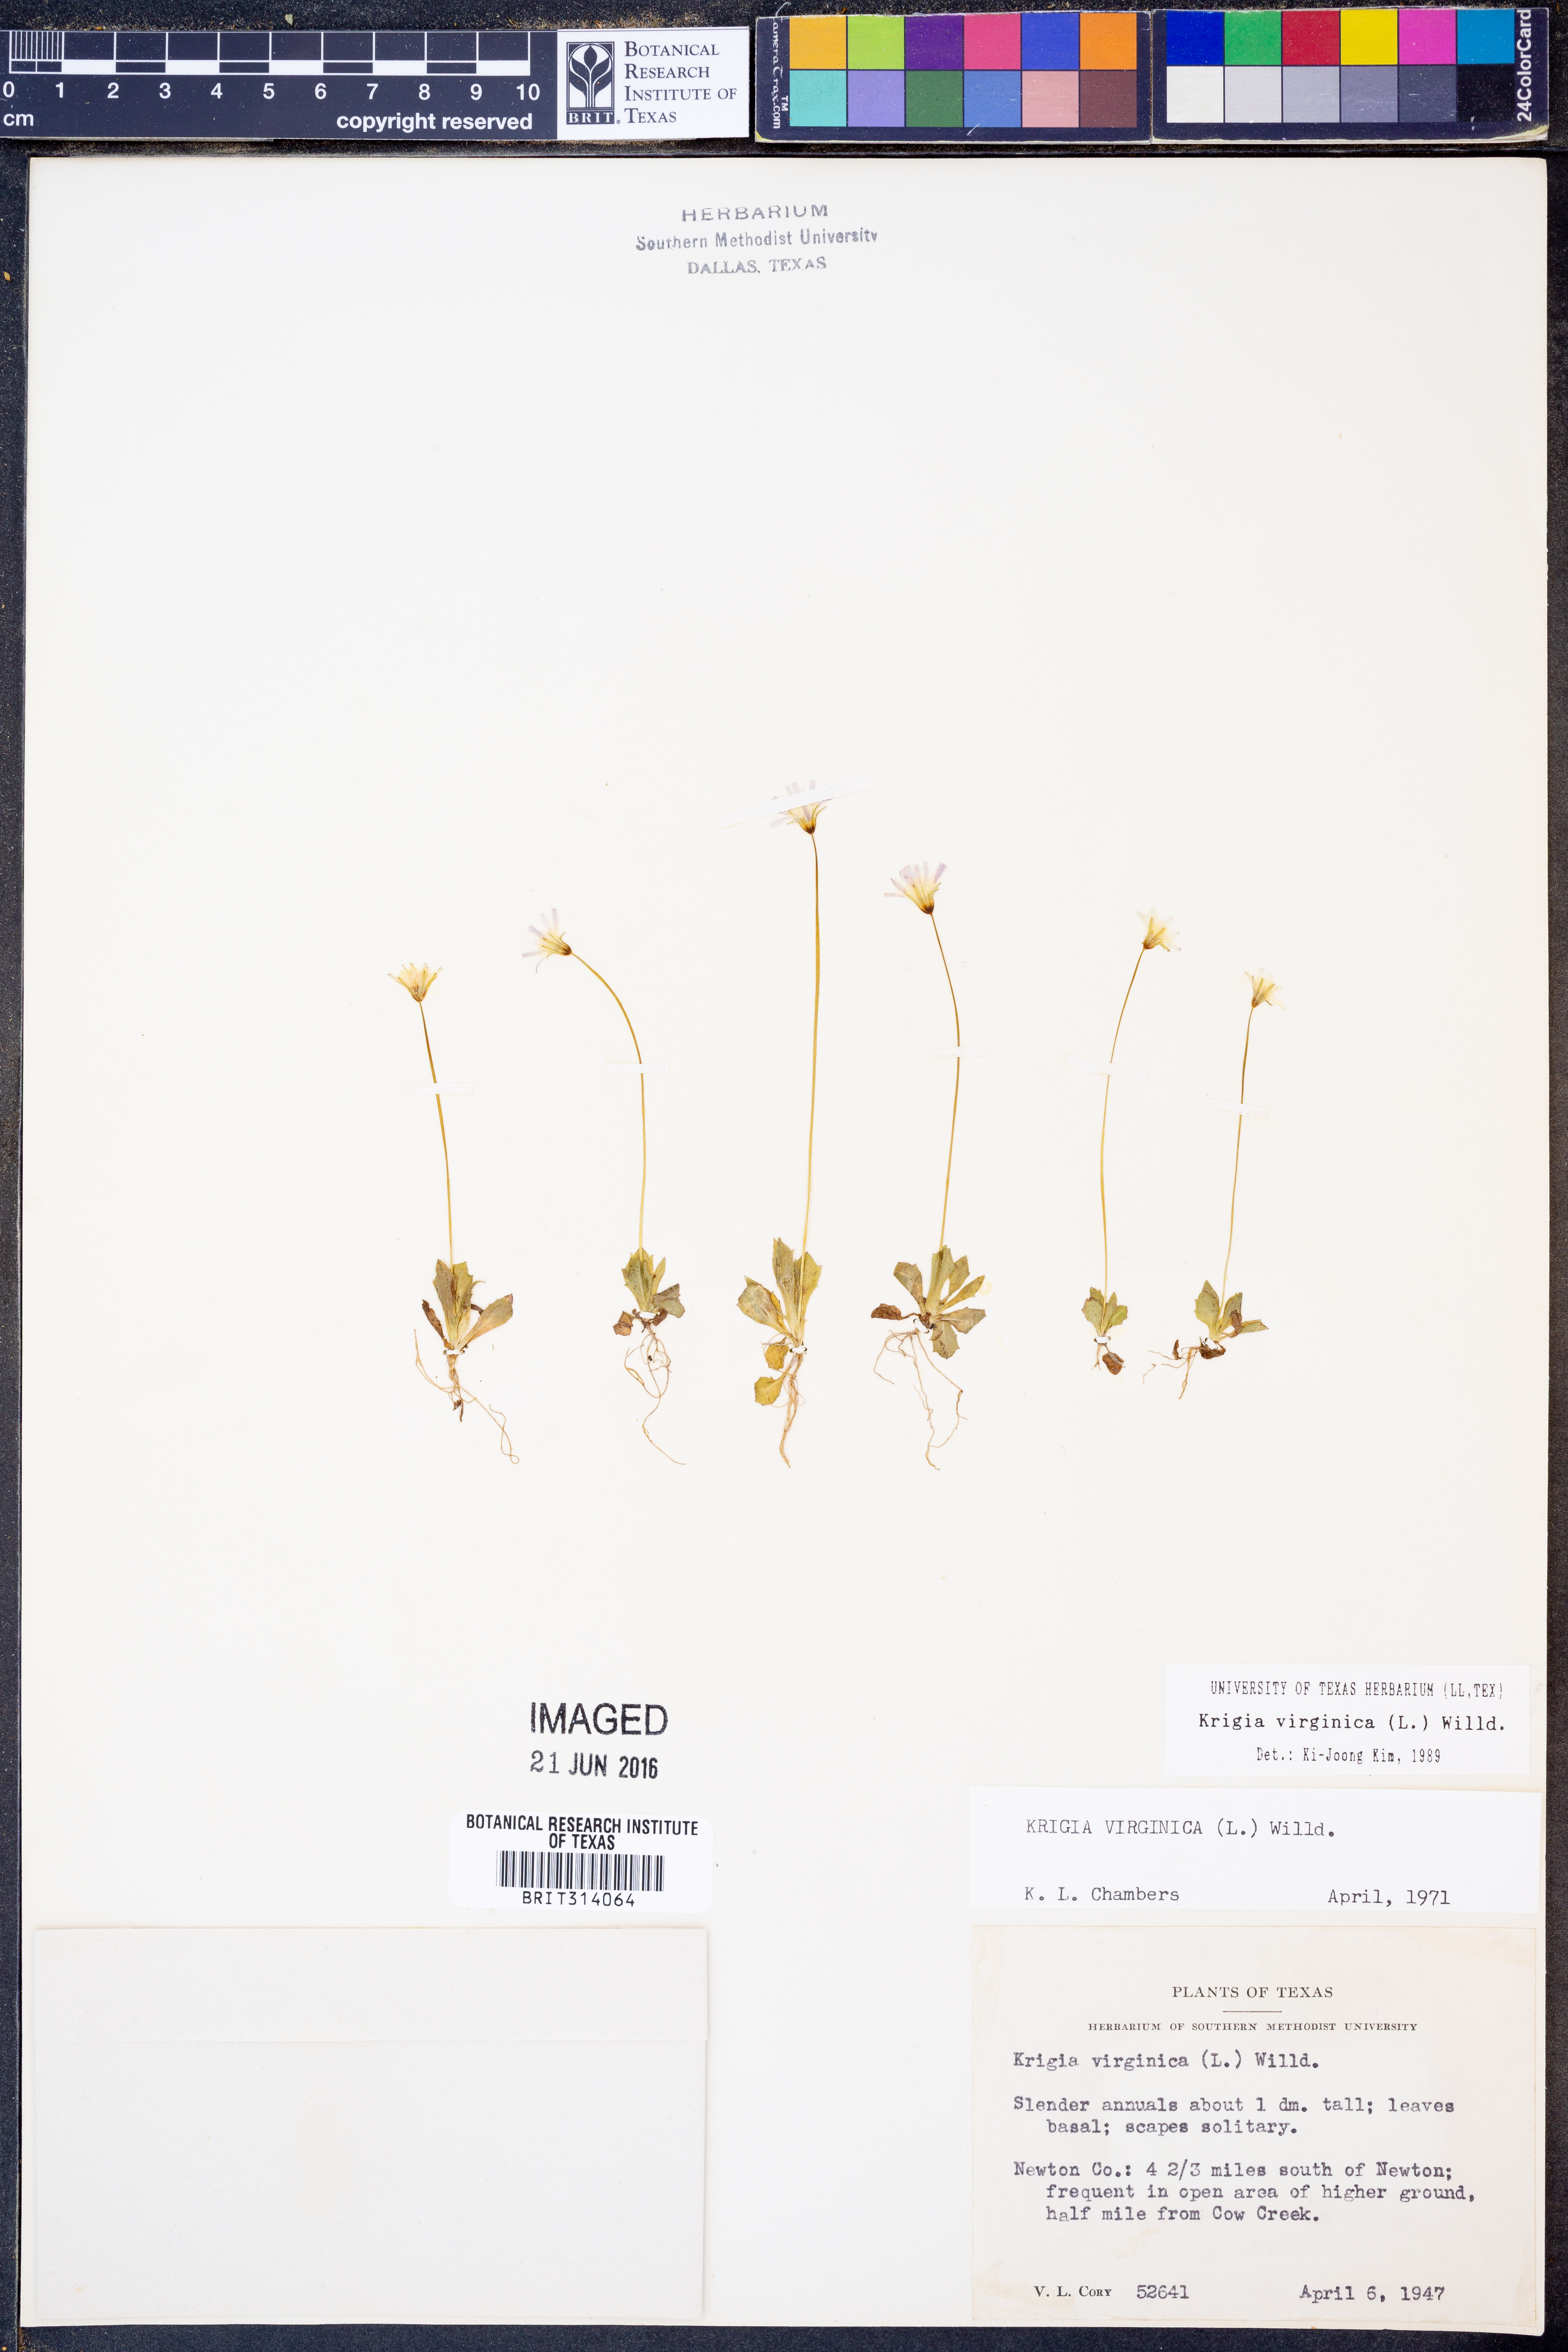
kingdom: Plantae
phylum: Tracheophyta
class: Magnoliopsida
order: Asterales
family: Asteraceae
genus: Krigia
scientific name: Krigia virginica
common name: Virginia dwarf-dandelion
